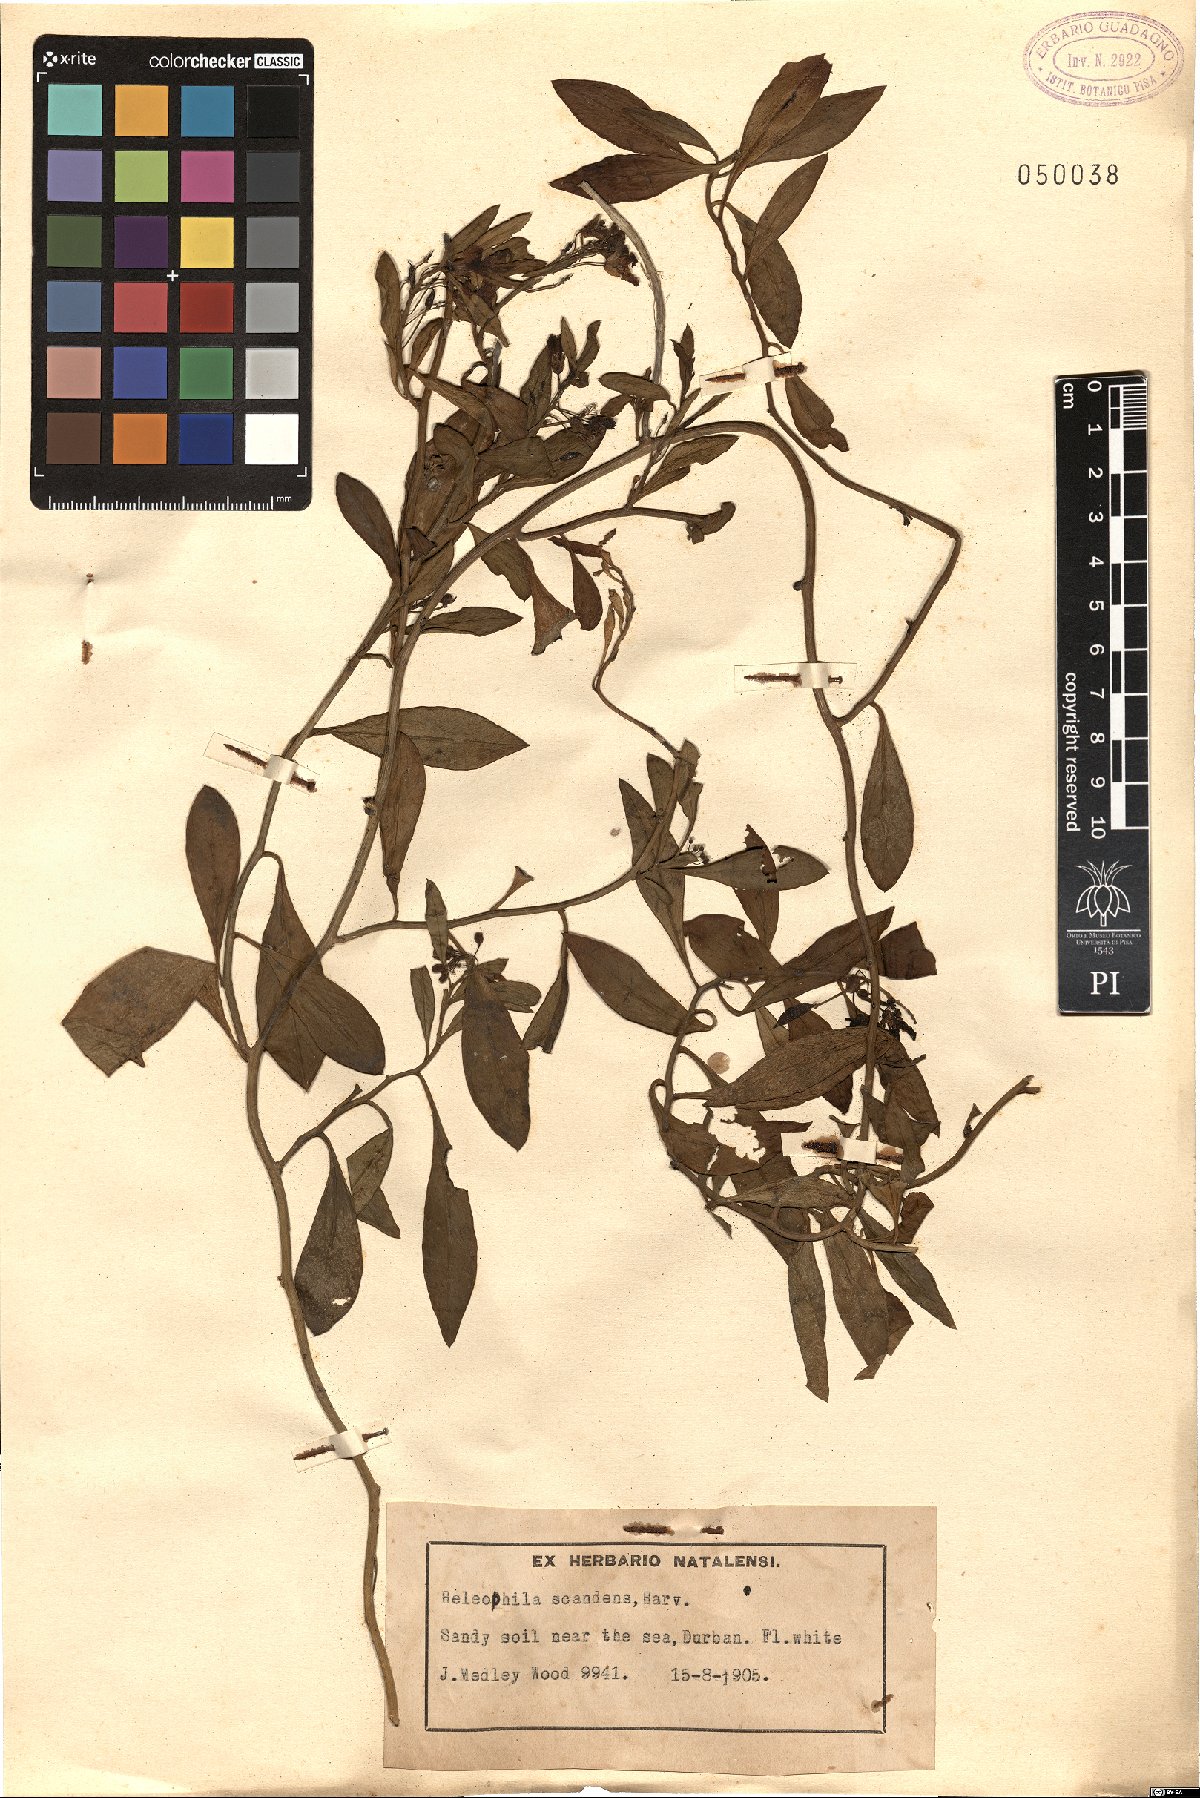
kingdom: Plantae
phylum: Tracheophyta
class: Magnoliopsida
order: Brassicales
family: Brassicaceae
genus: Heliophila
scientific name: Heliophila scandens
